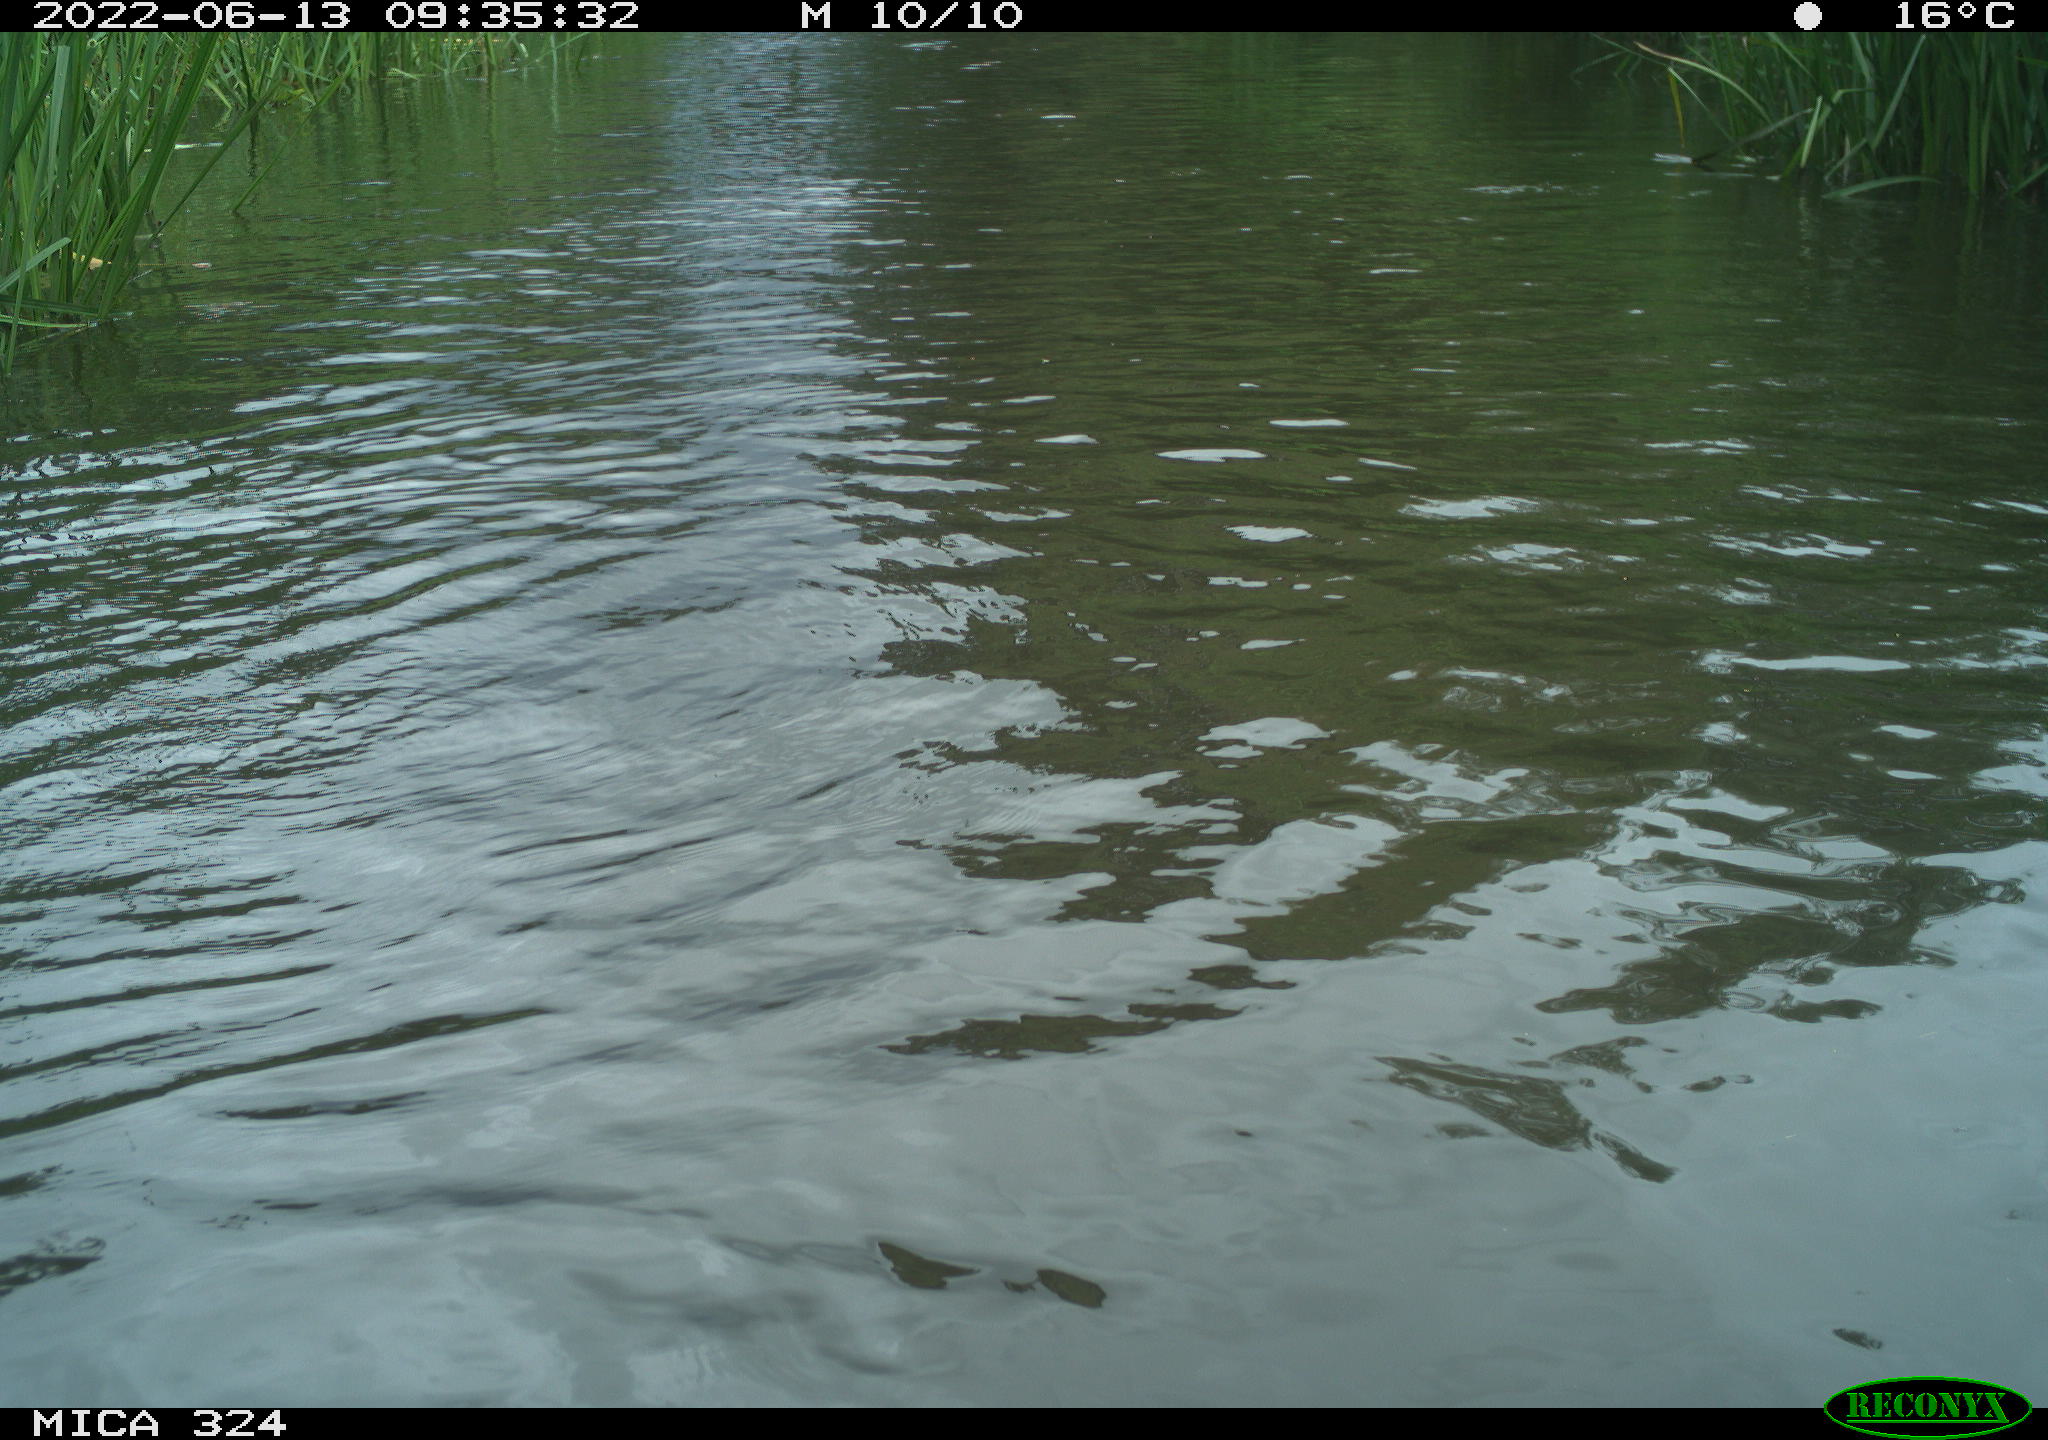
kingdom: Animalia
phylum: Chordata
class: Aves
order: Gruiformes
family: Rallidae
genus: Fulica
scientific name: Fulica atra
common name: Eurasian coot
